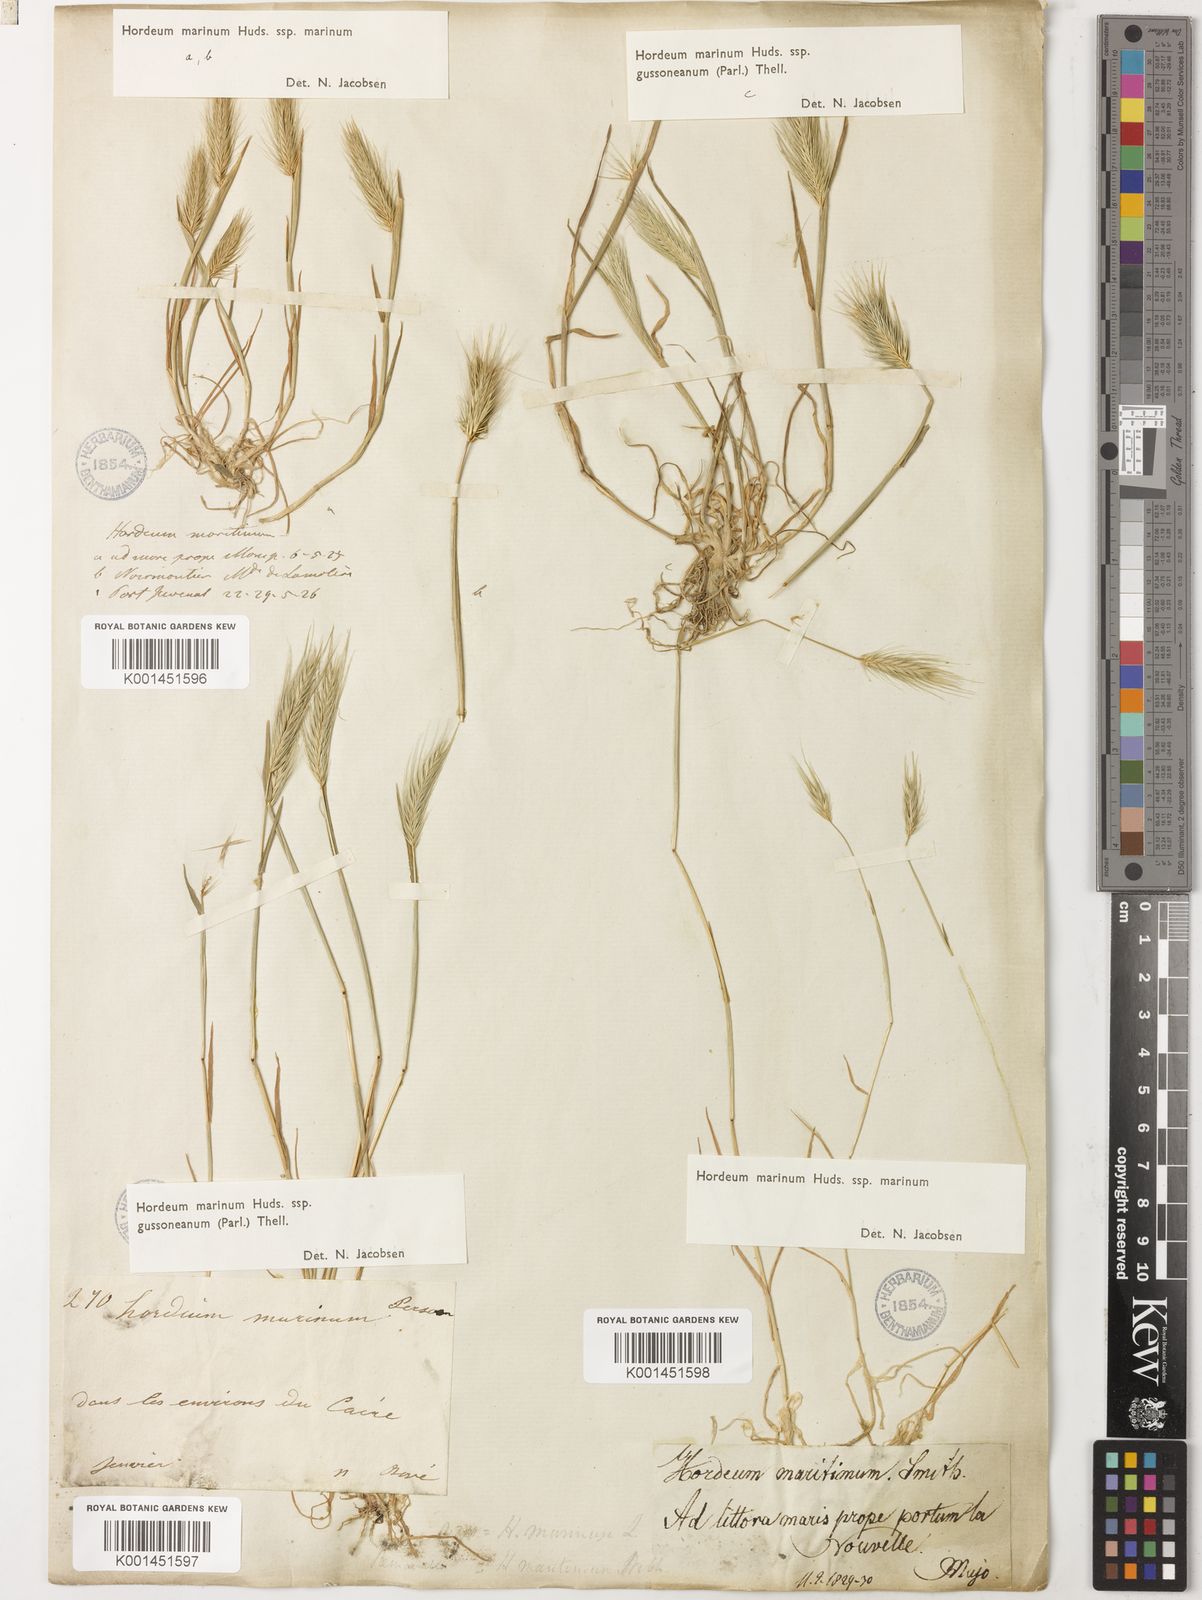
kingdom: Plantae
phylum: Tracheophyta
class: Liliopsida
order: Poales
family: Poaceae
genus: Hordeum
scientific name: Hordeum marinum
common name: Sea barley
